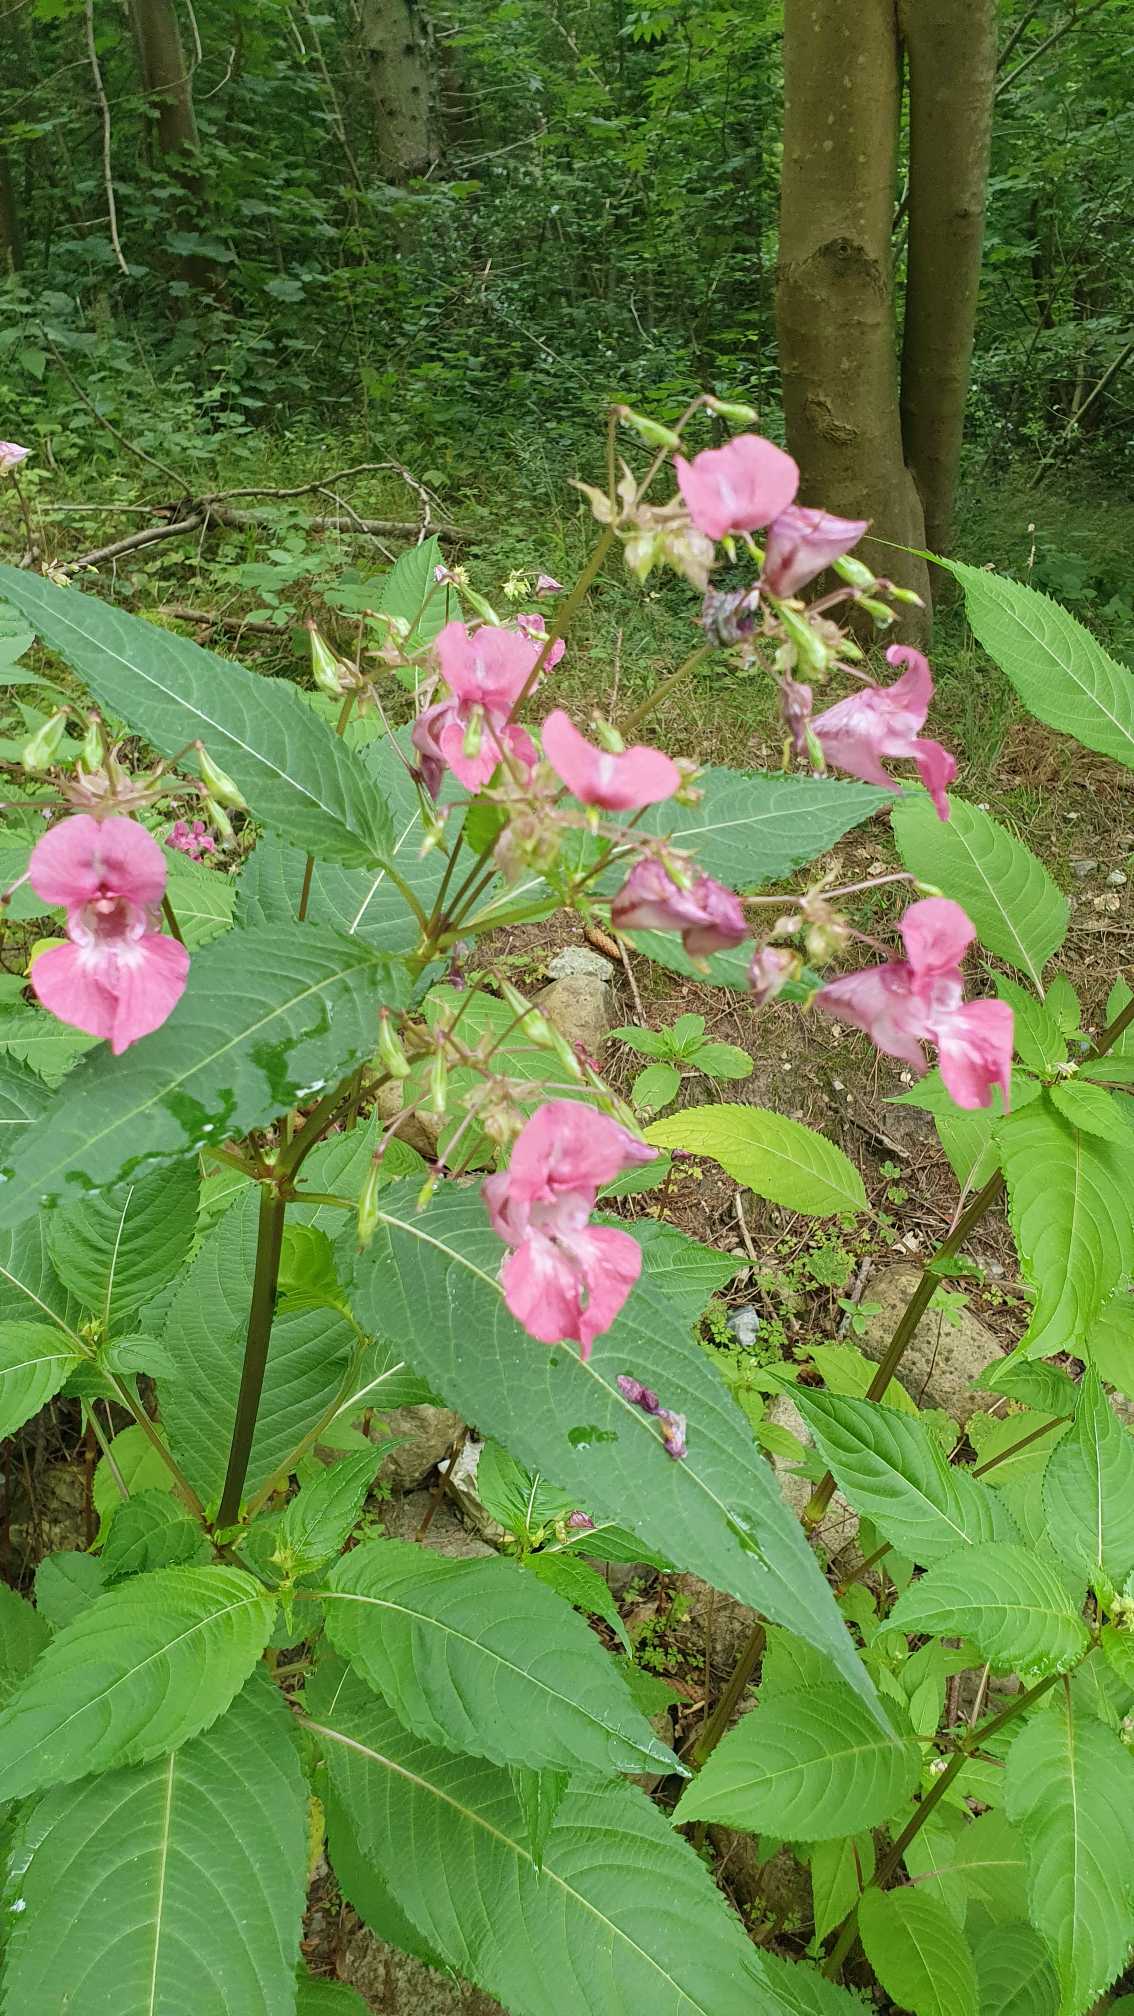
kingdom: Plantae
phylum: Tracheophyta
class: Magnoliopsida
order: Ericales
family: Balsaminaceae
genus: Impatiens
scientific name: Impatiens glandulifera
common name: Kæmpe-balsamin
